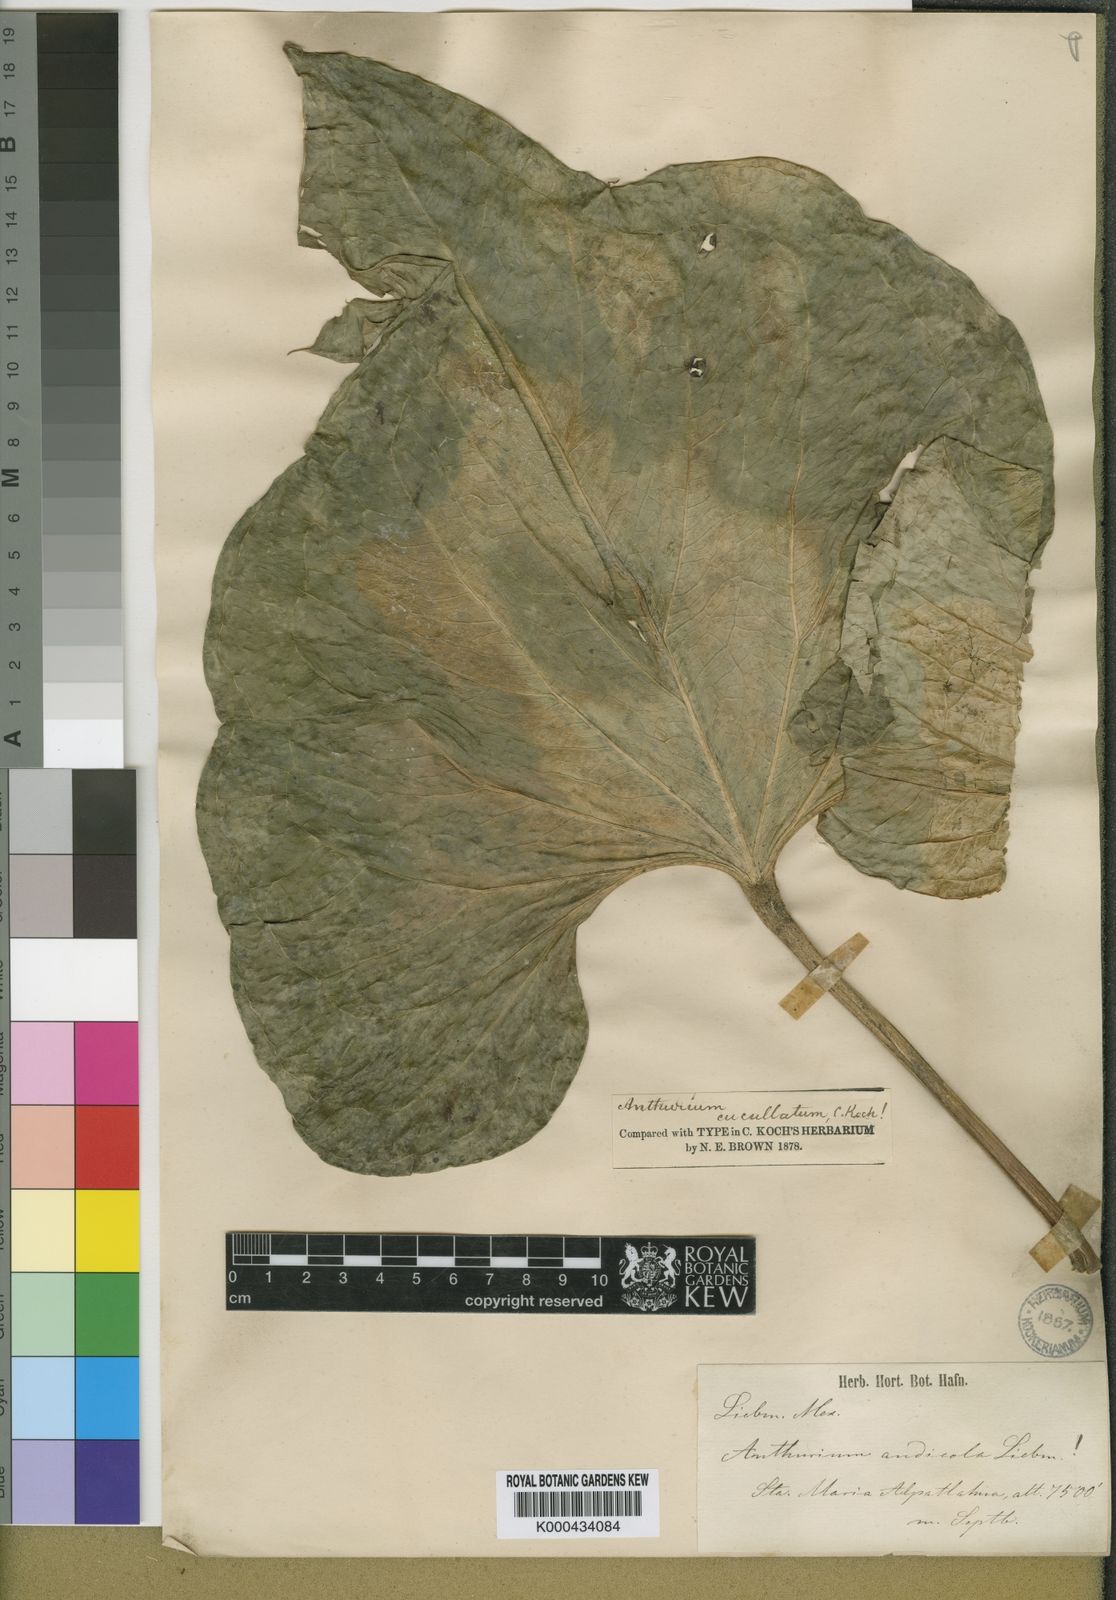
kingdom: Plantae
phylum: Tracheophyta
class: Liliopsida
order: Alismatales
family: Araceae
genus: Anthurium
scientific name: Anthurium andicola
